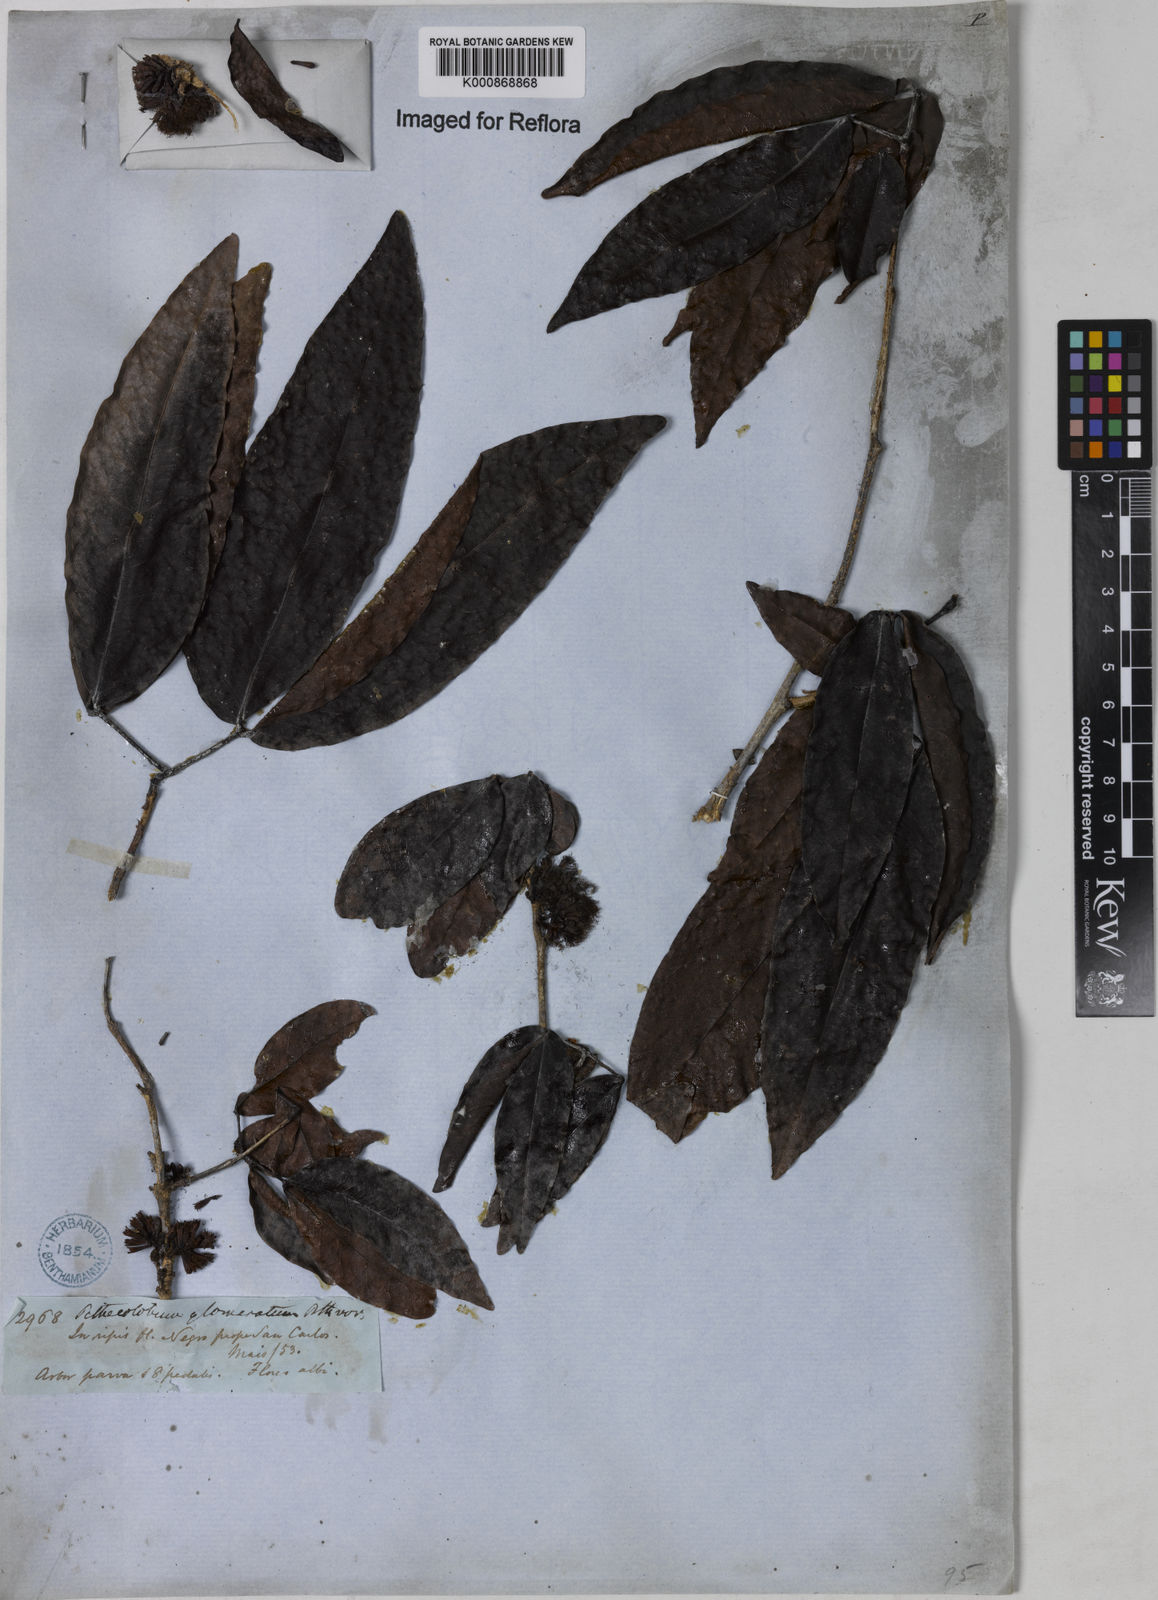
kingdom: Plantae
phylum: Tracheophyta
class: Magnoliopsida
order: Fabales
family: Fabaceae
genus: Zygia
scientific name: Zygia cataractae
